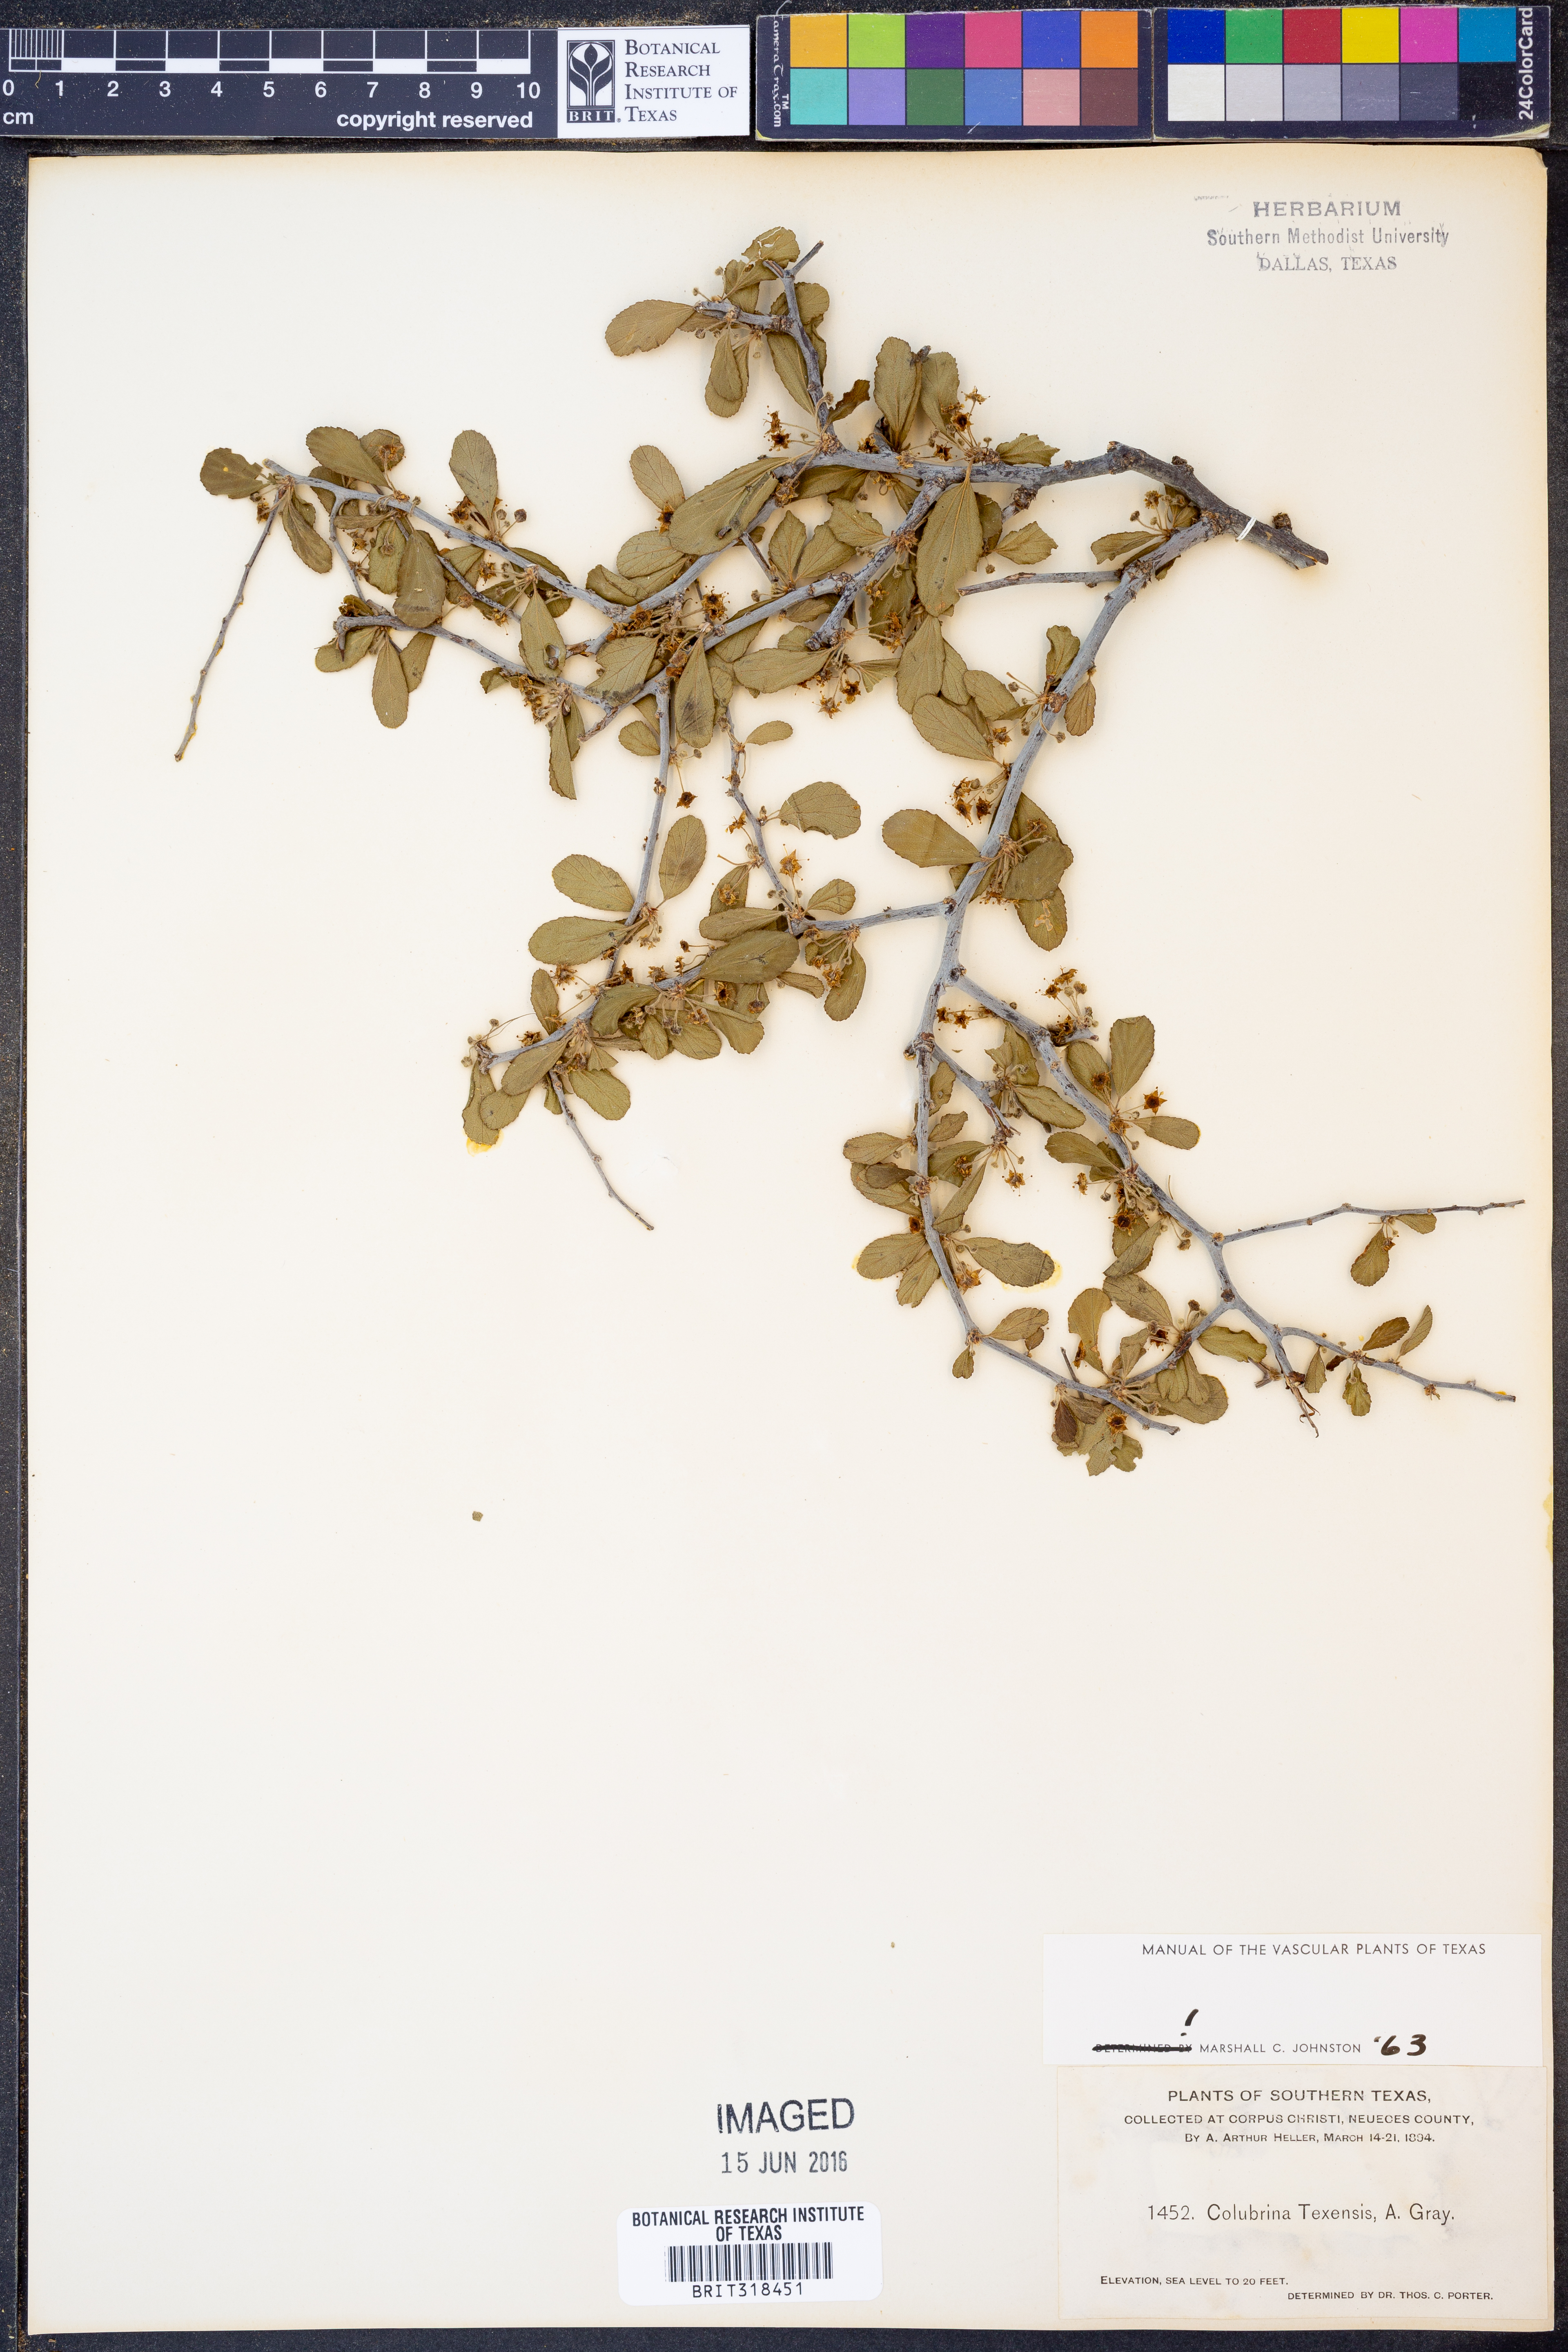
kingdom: Plantae
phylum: Tracheophyta
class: Magnoliopsida
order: Rosales
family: Rhamnaceae
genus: Colubrina
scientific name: Colubrina texensis
